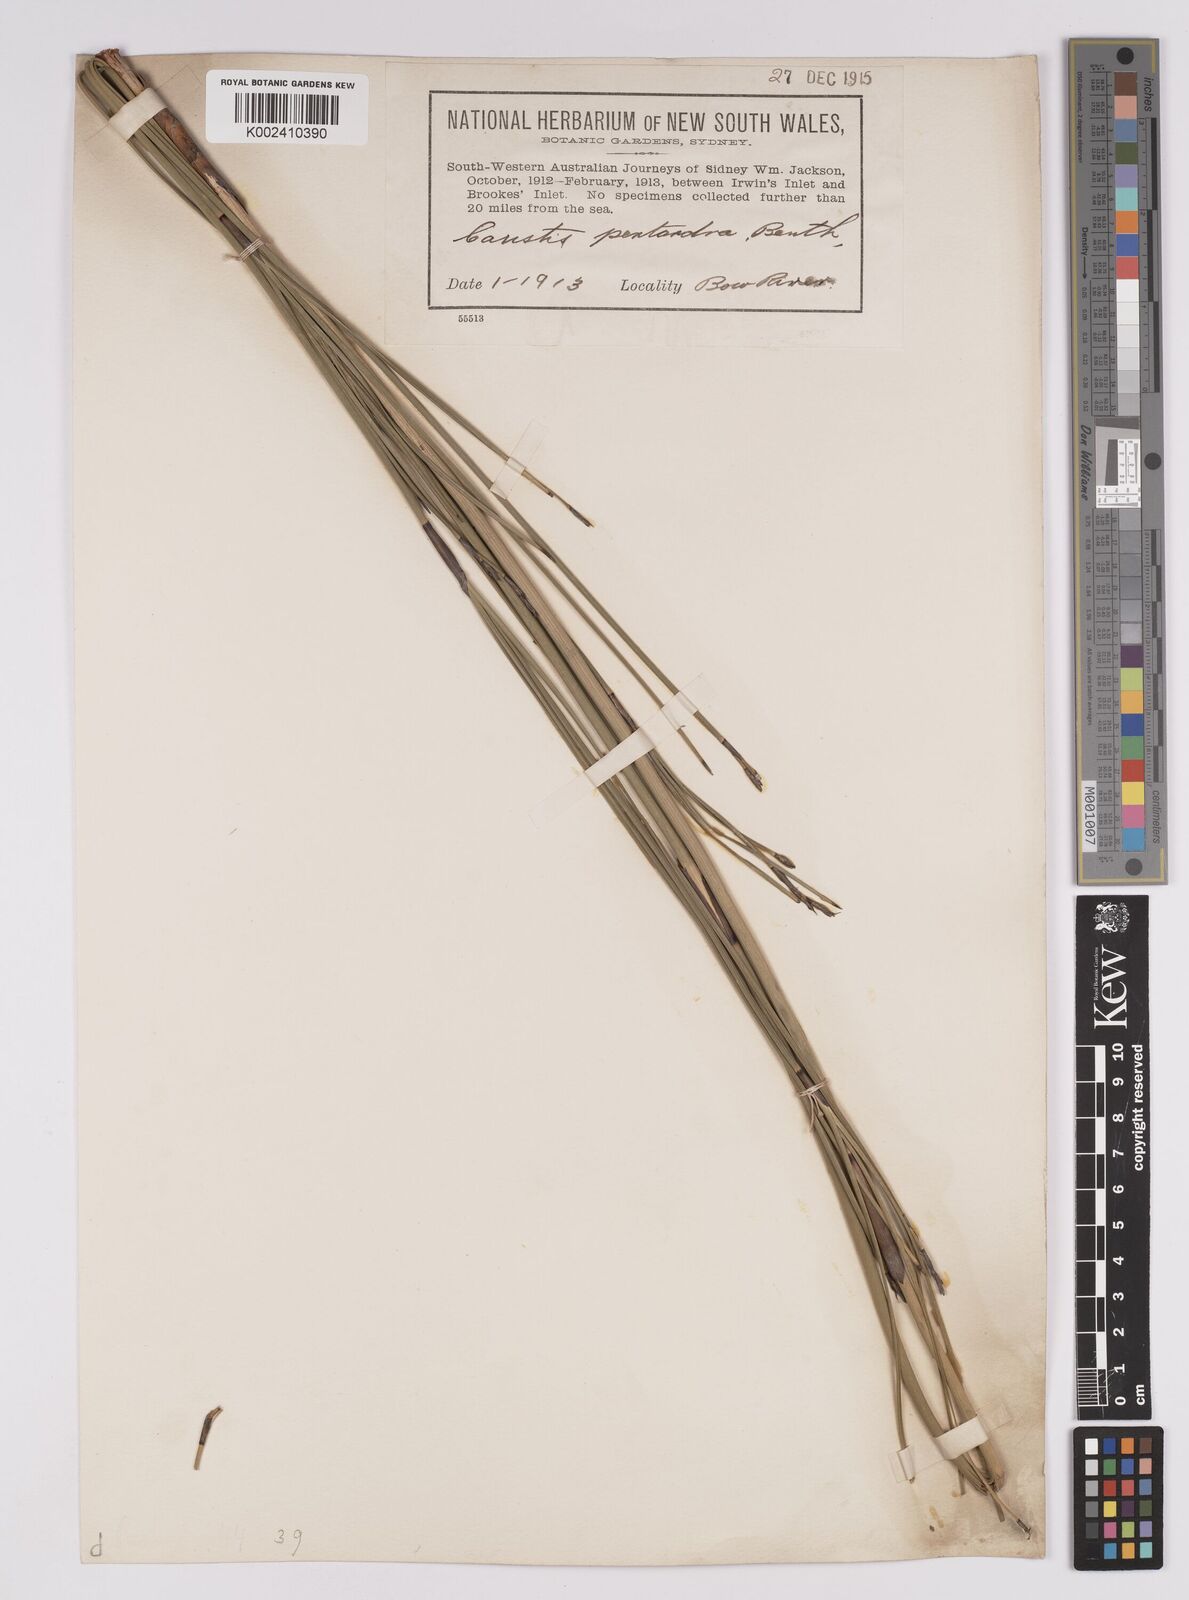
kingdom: Plantae
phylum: Tracheophyta
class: Liliopsida
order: Poales
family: Cyperaceae
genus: Caustis
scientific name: Caustis pentandra
